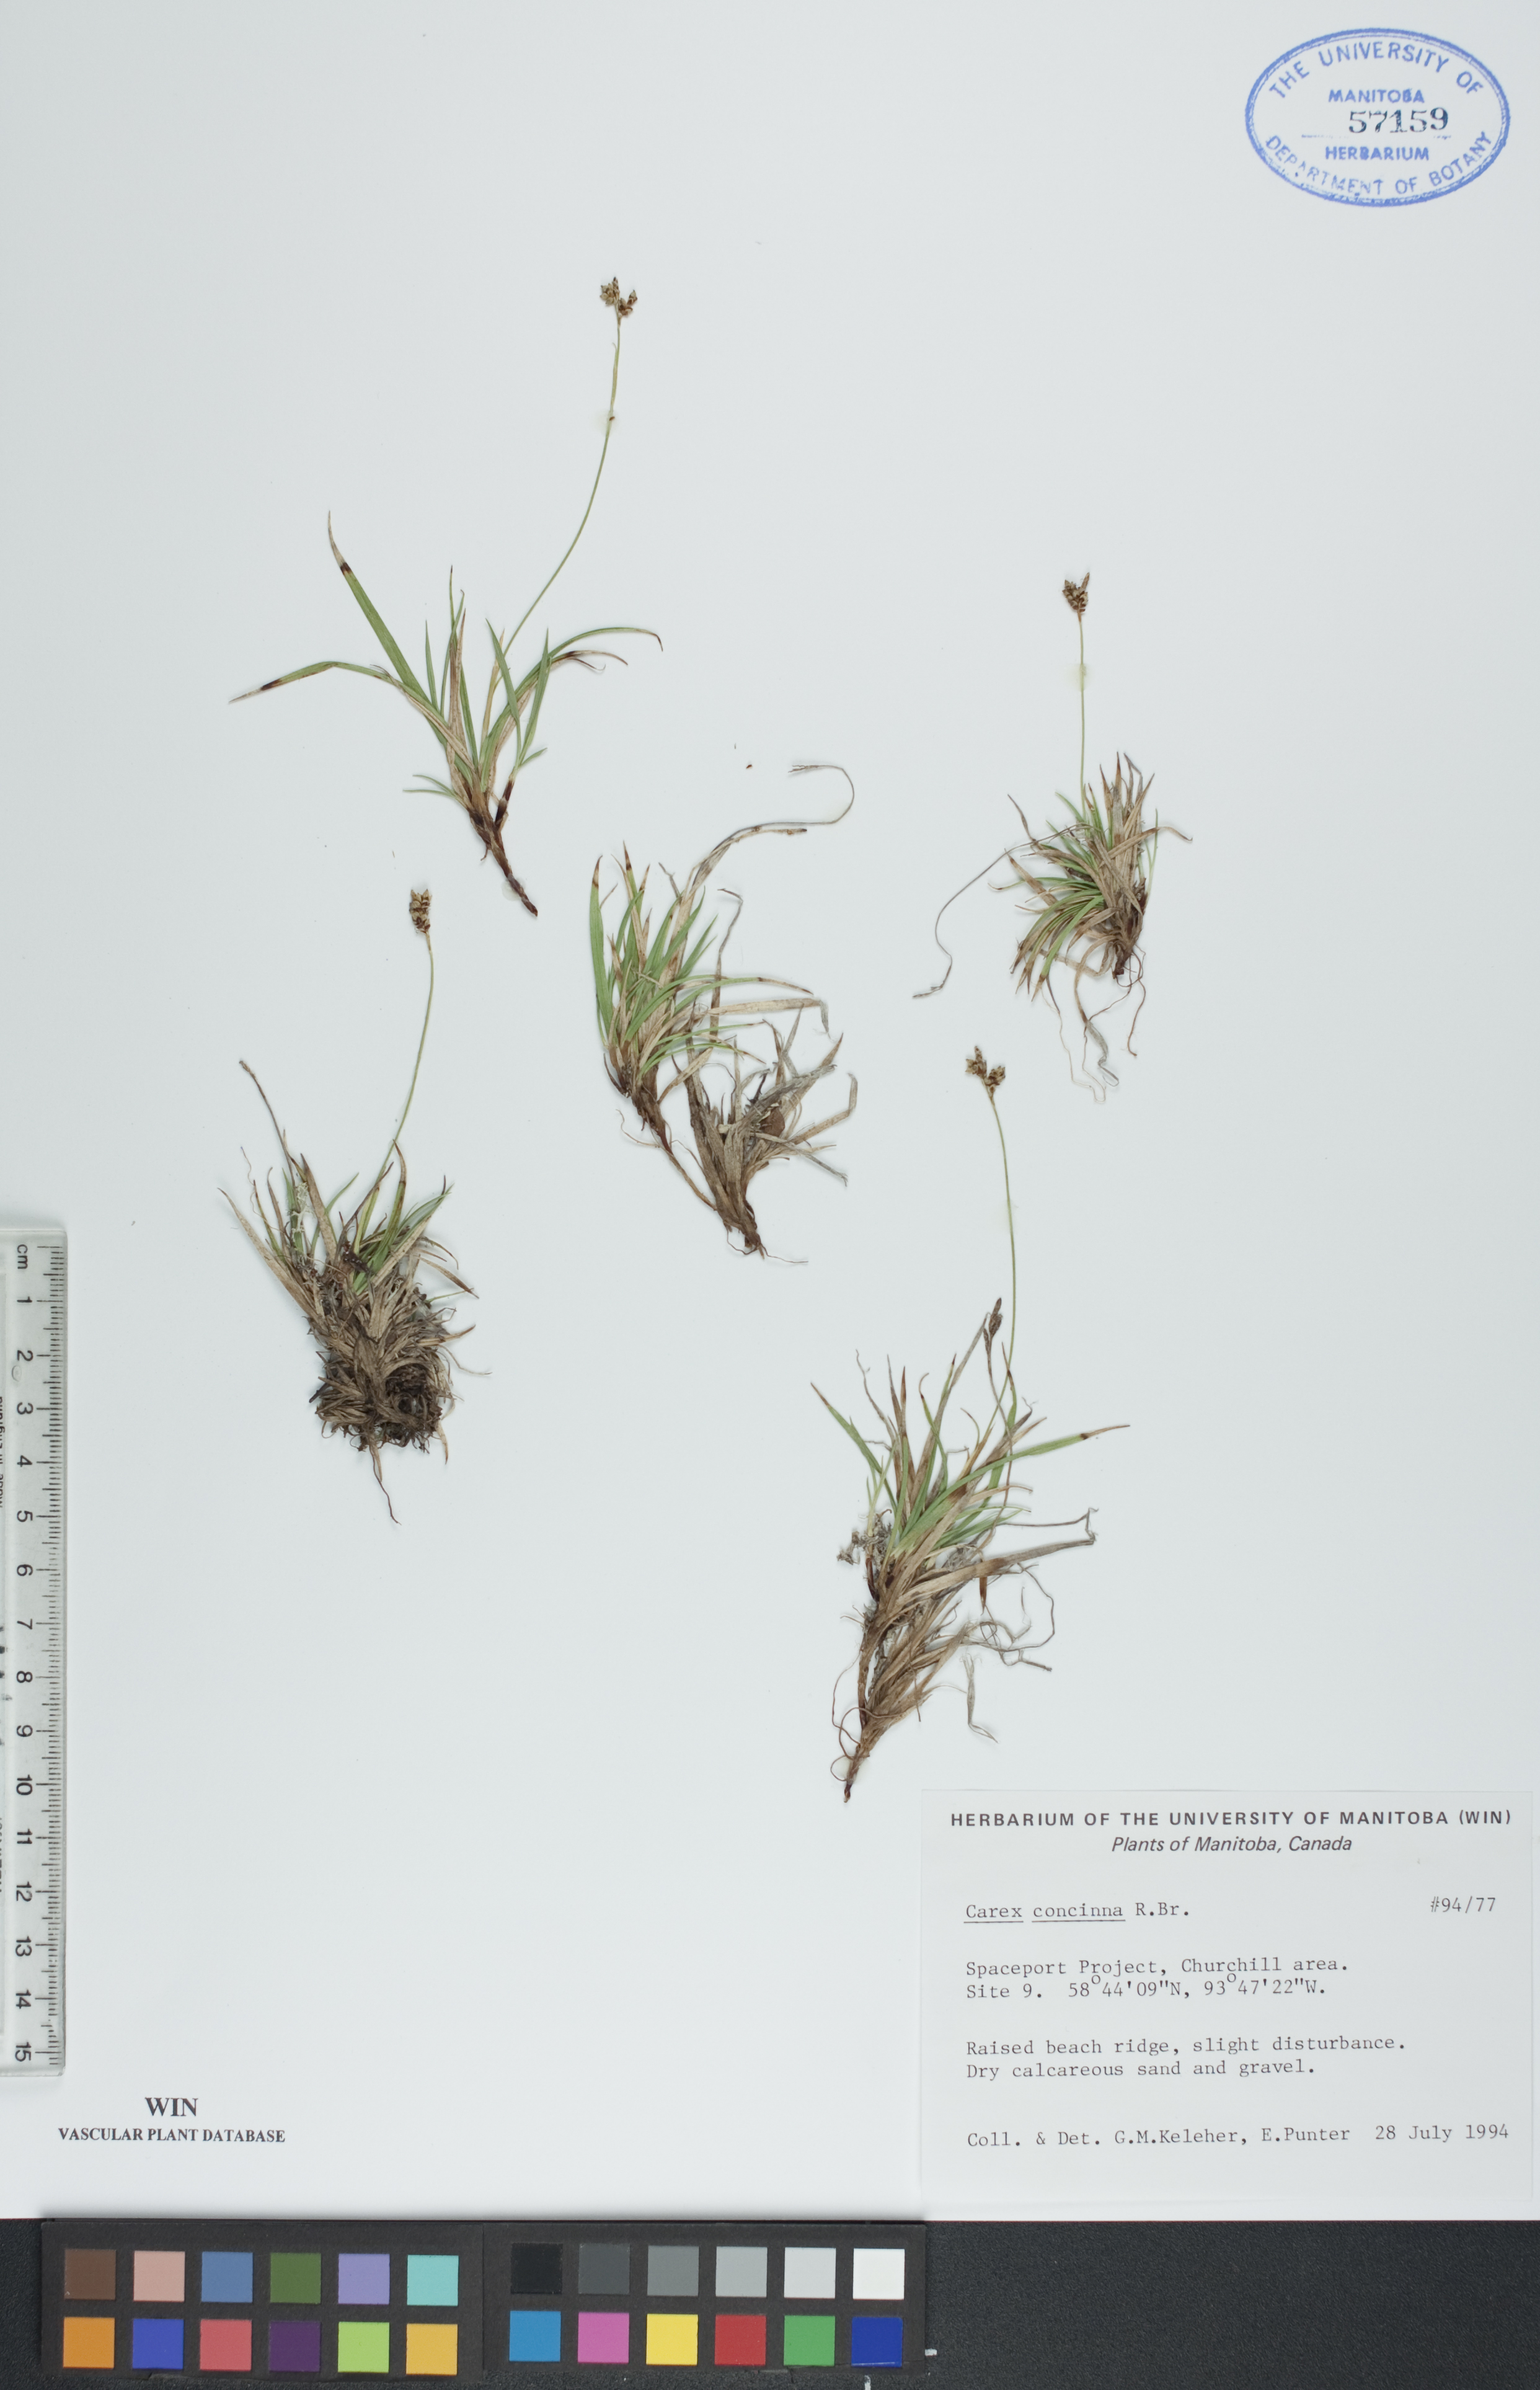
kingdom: Plantae
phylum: Tracheophyta
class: Liliopsida
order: Poales
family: Cyperaceae
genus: Carex
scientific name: Carex concinna
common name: Beautiful sedge
